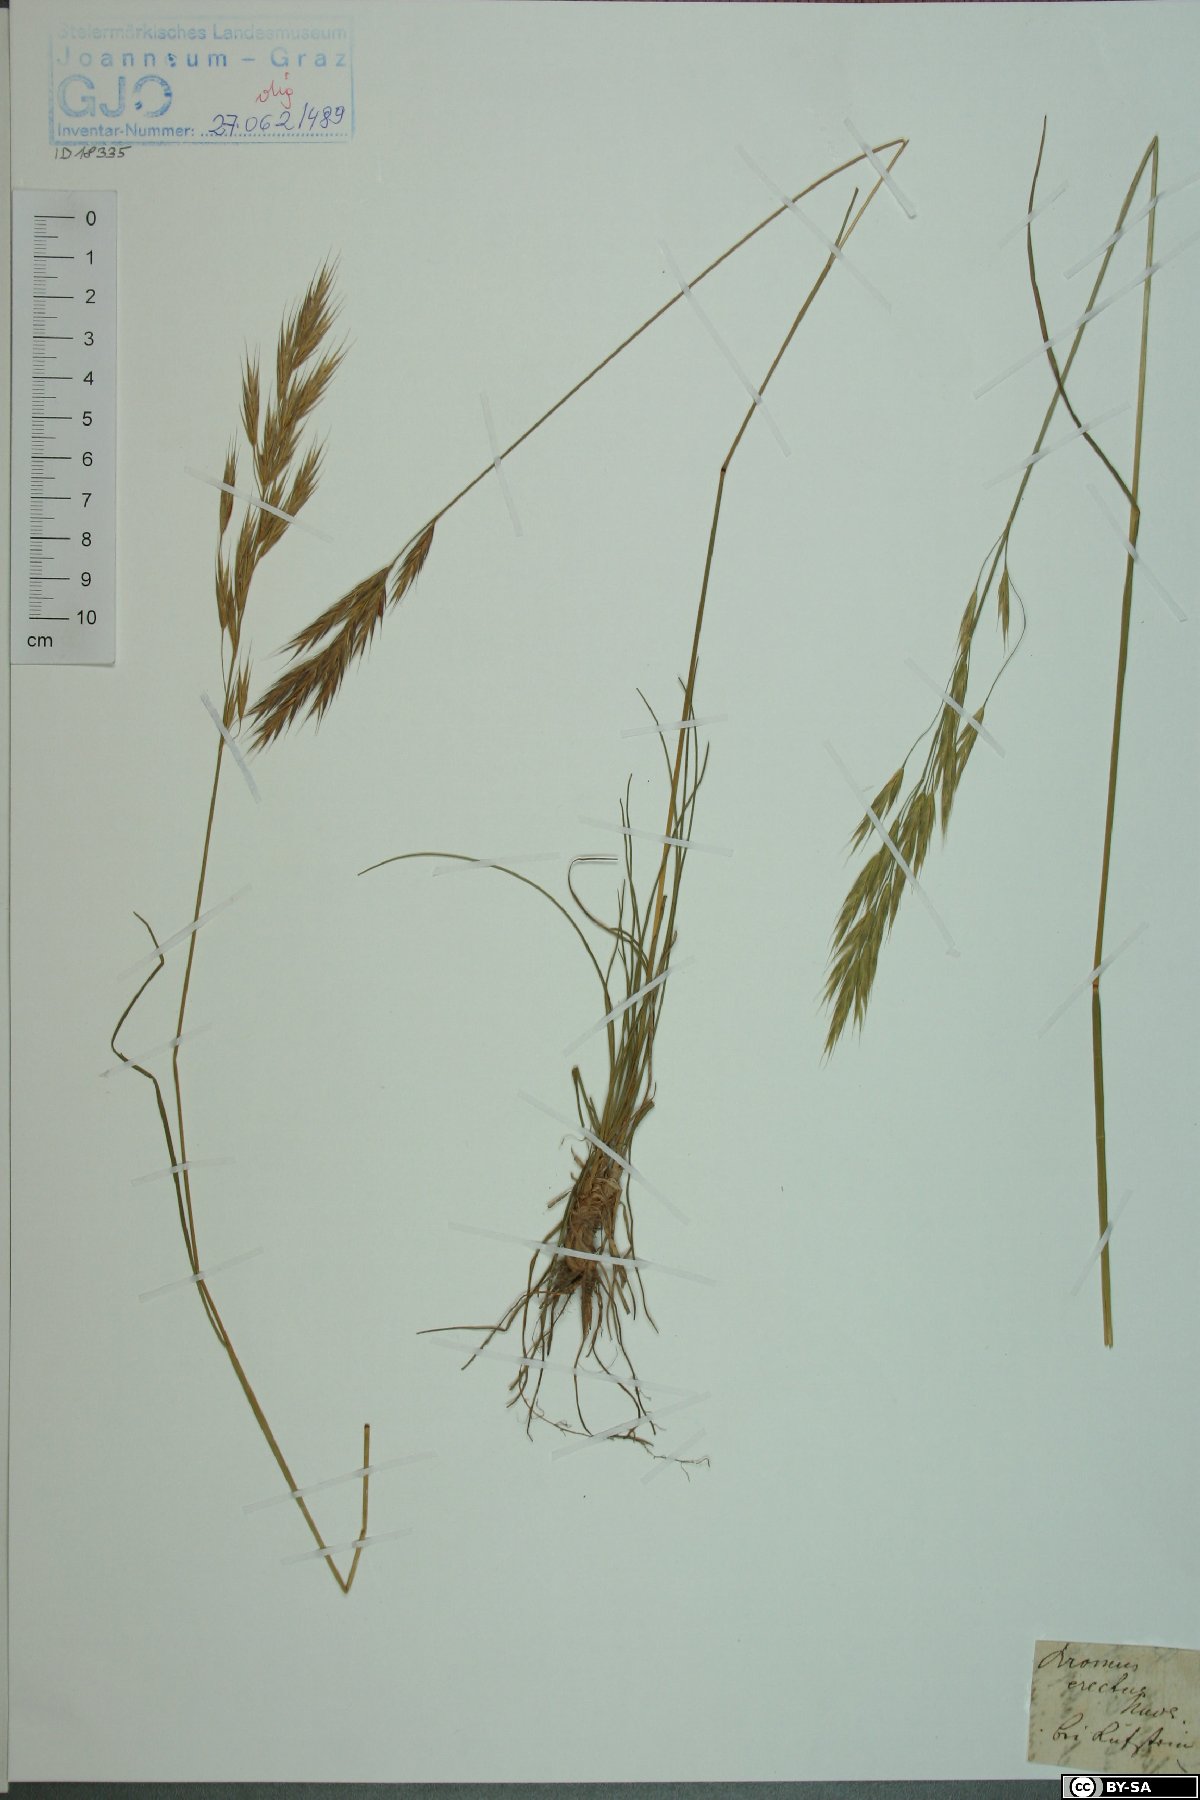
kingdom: Plantae
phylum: Tracheophyta
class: Liliopsida
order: Poales
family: Poaceae
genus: Bromus
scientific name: Bromus erectus
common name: Erect brome
